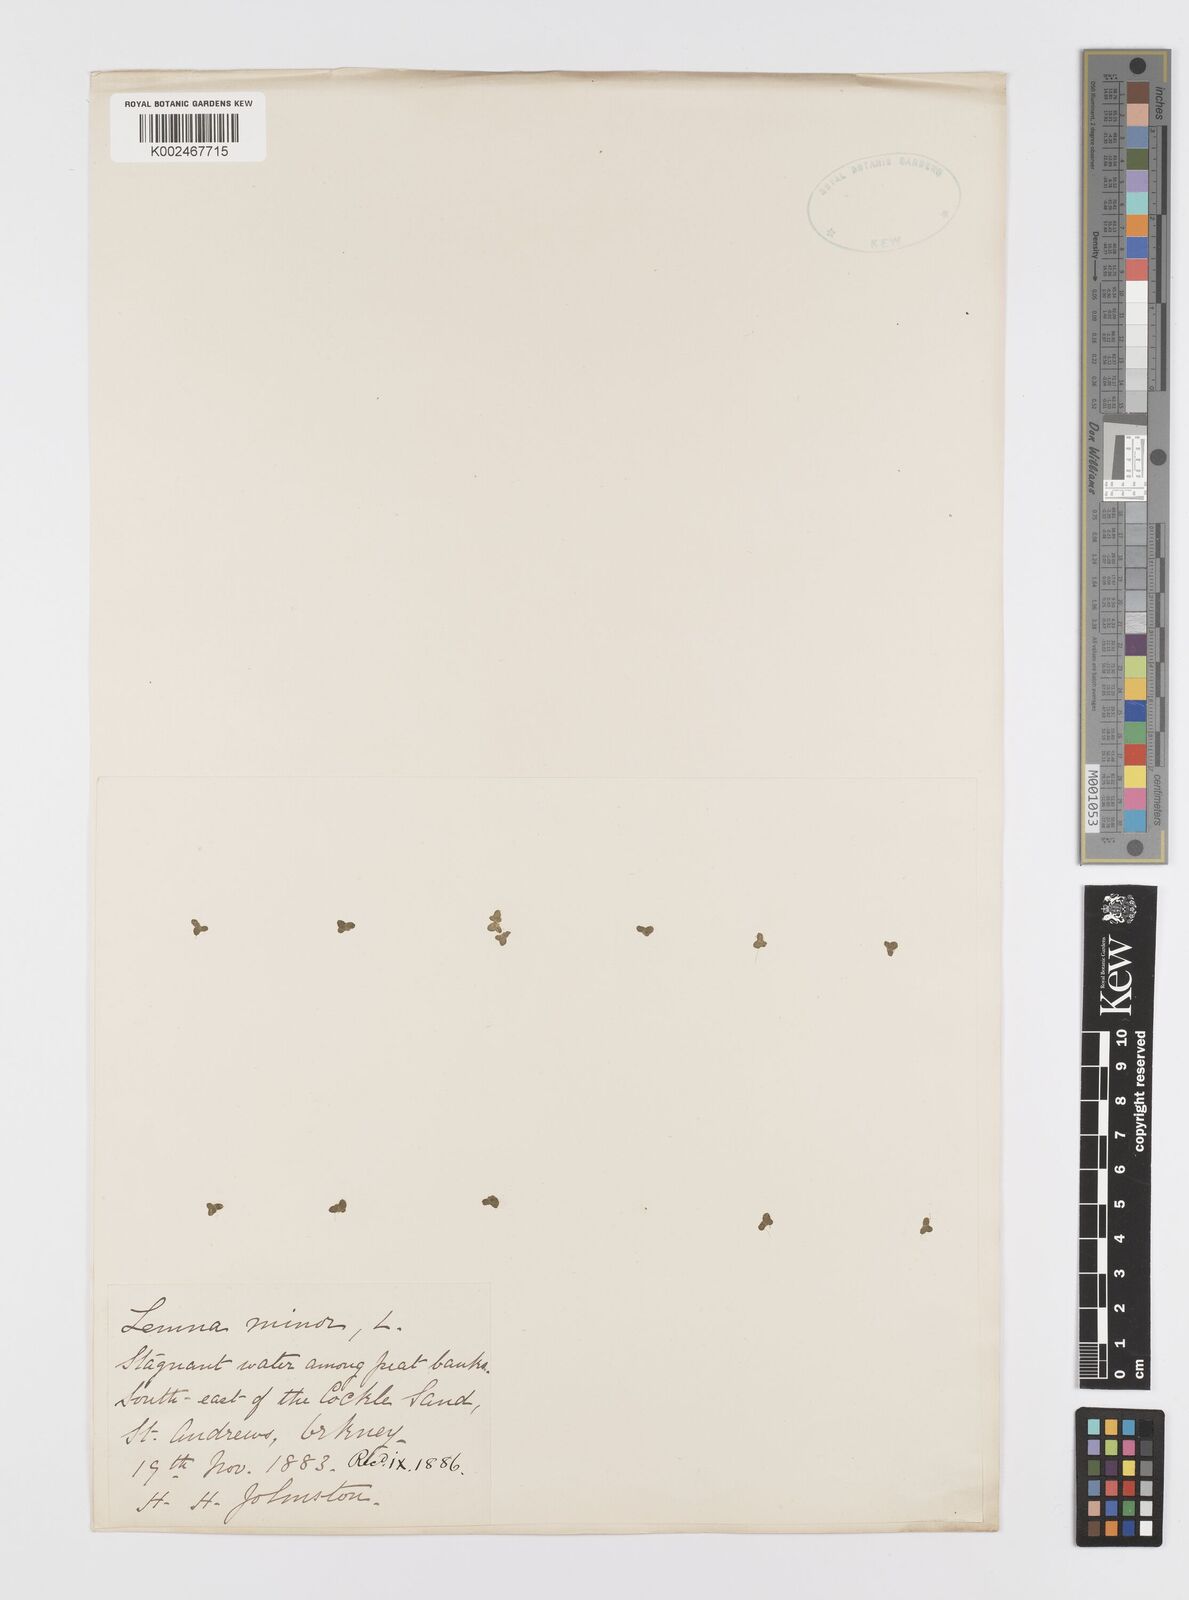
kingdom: Plantae
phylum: Tracheophyta
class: Liliopsida
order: Alismatales
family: Araceae
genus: Lemna
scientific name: Lemna minor
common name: Common duckweed
